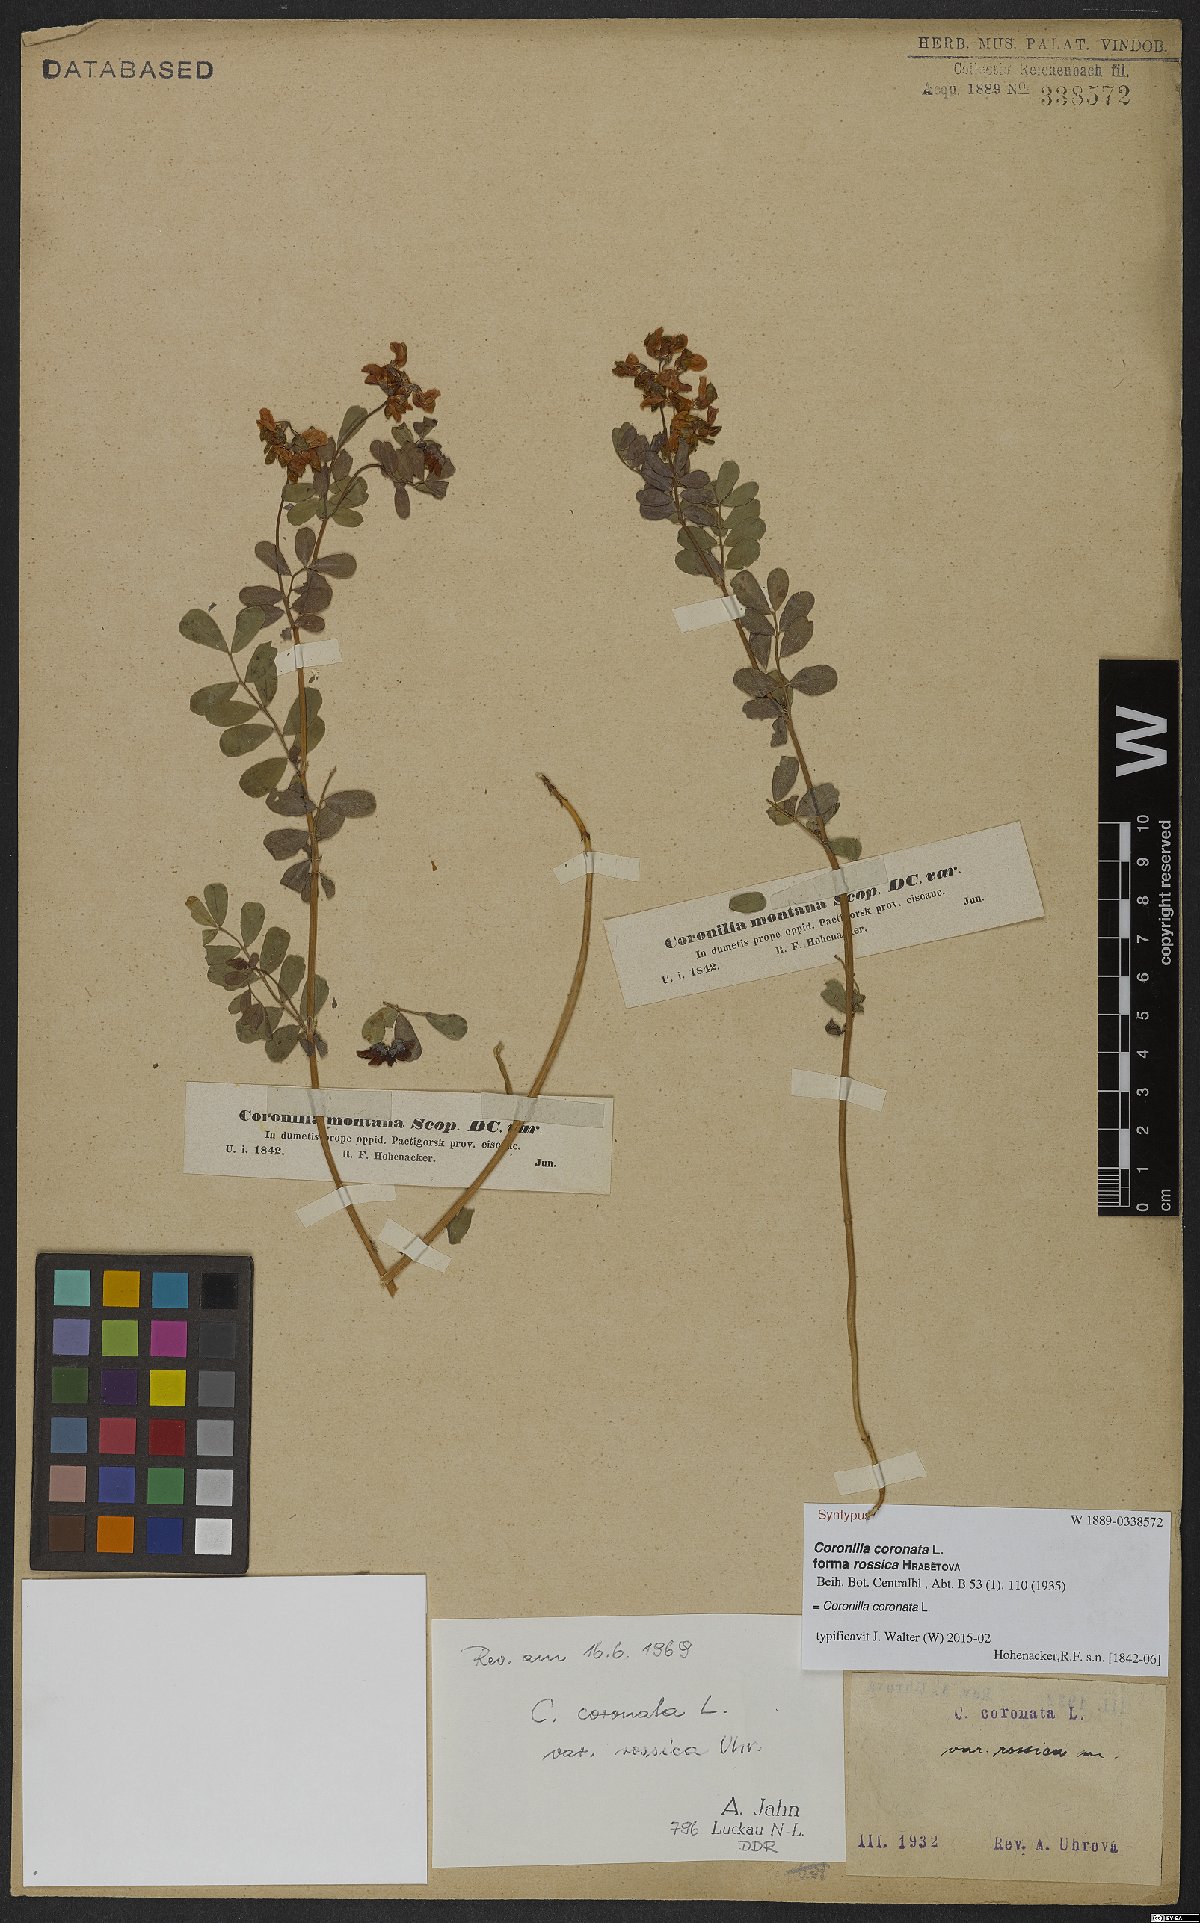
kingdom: Plantae
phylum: Tracheophyta
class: Magnoliopsida
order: Fabales
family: Fabaceae
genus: Coronilla
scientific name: Coronilla coronata
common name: Scorpion-vetch
